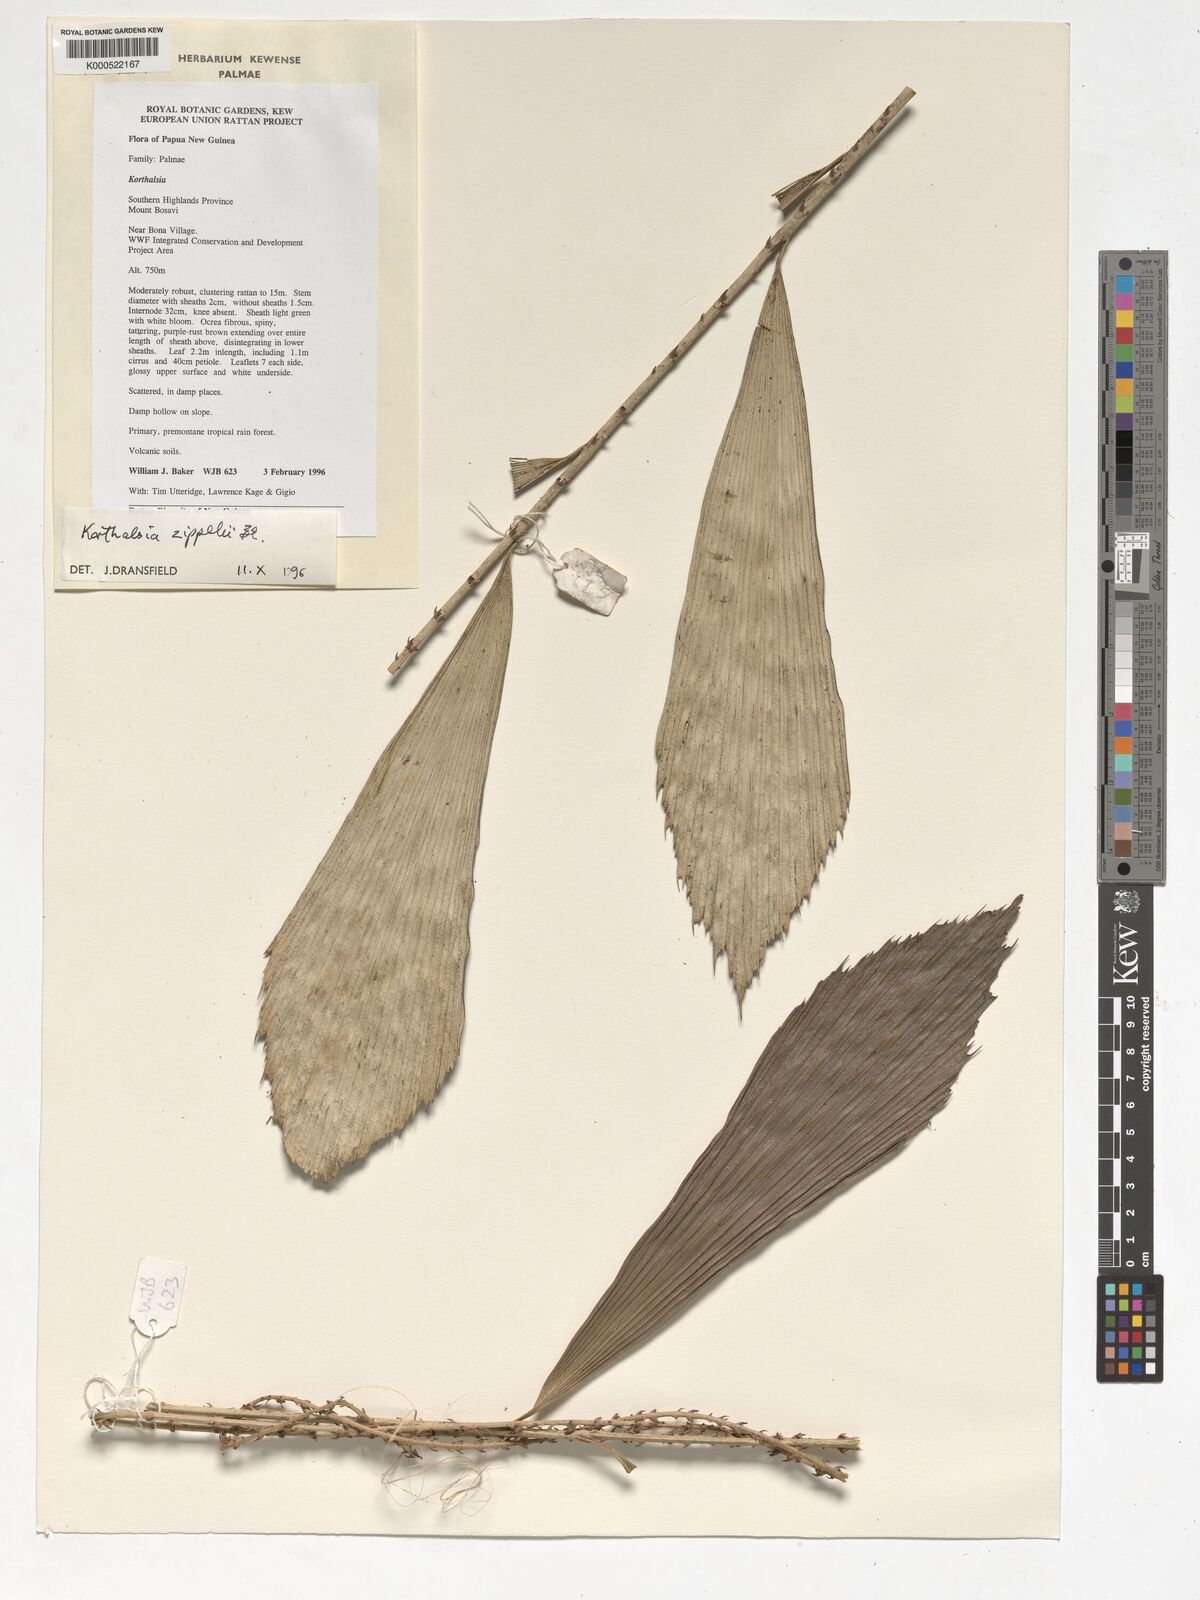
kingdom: Plantae
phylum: Tracheophyta
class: Liliopsida
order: Arecales
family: Arecaceae
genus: Korthalsia
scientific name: Korthalsia zippelii
